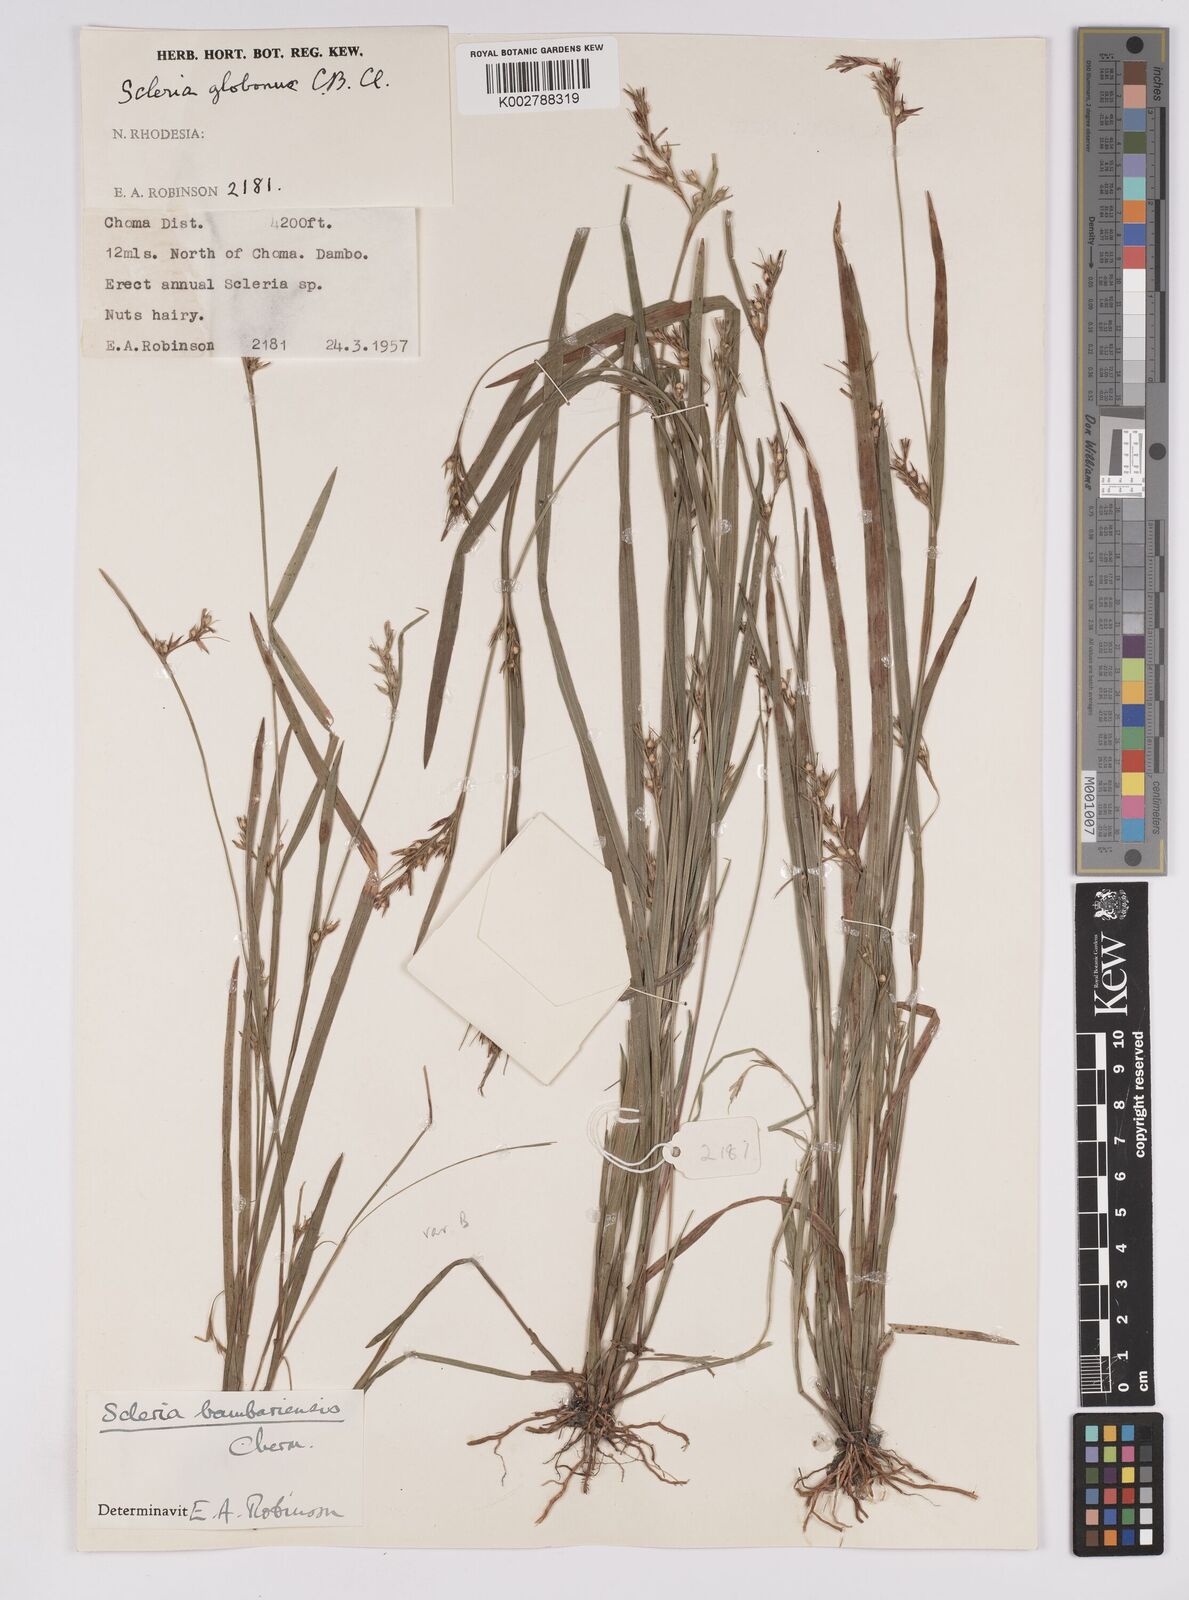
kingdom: Plantae
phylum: Tracheophyta
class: Liliopsida
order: Poales
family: Cyperaceae
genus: Scleria
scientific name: Scleria bambariensis
